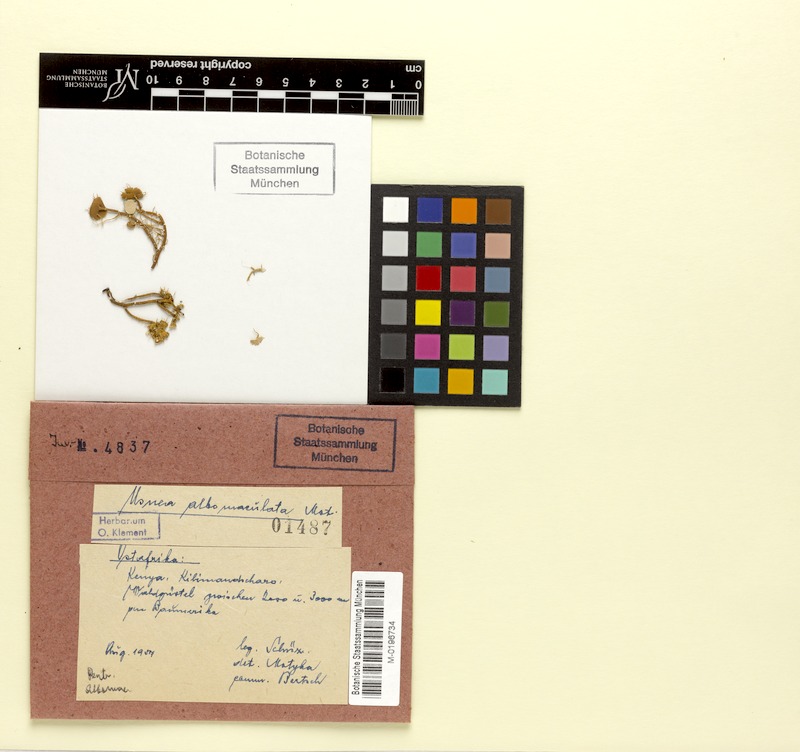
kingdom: Fungi
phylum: Ascomycota
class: Lecanoromycetes
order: Lecanorales
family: Parmeliaceae
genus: Usnea
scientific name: Usnea albomaculata
